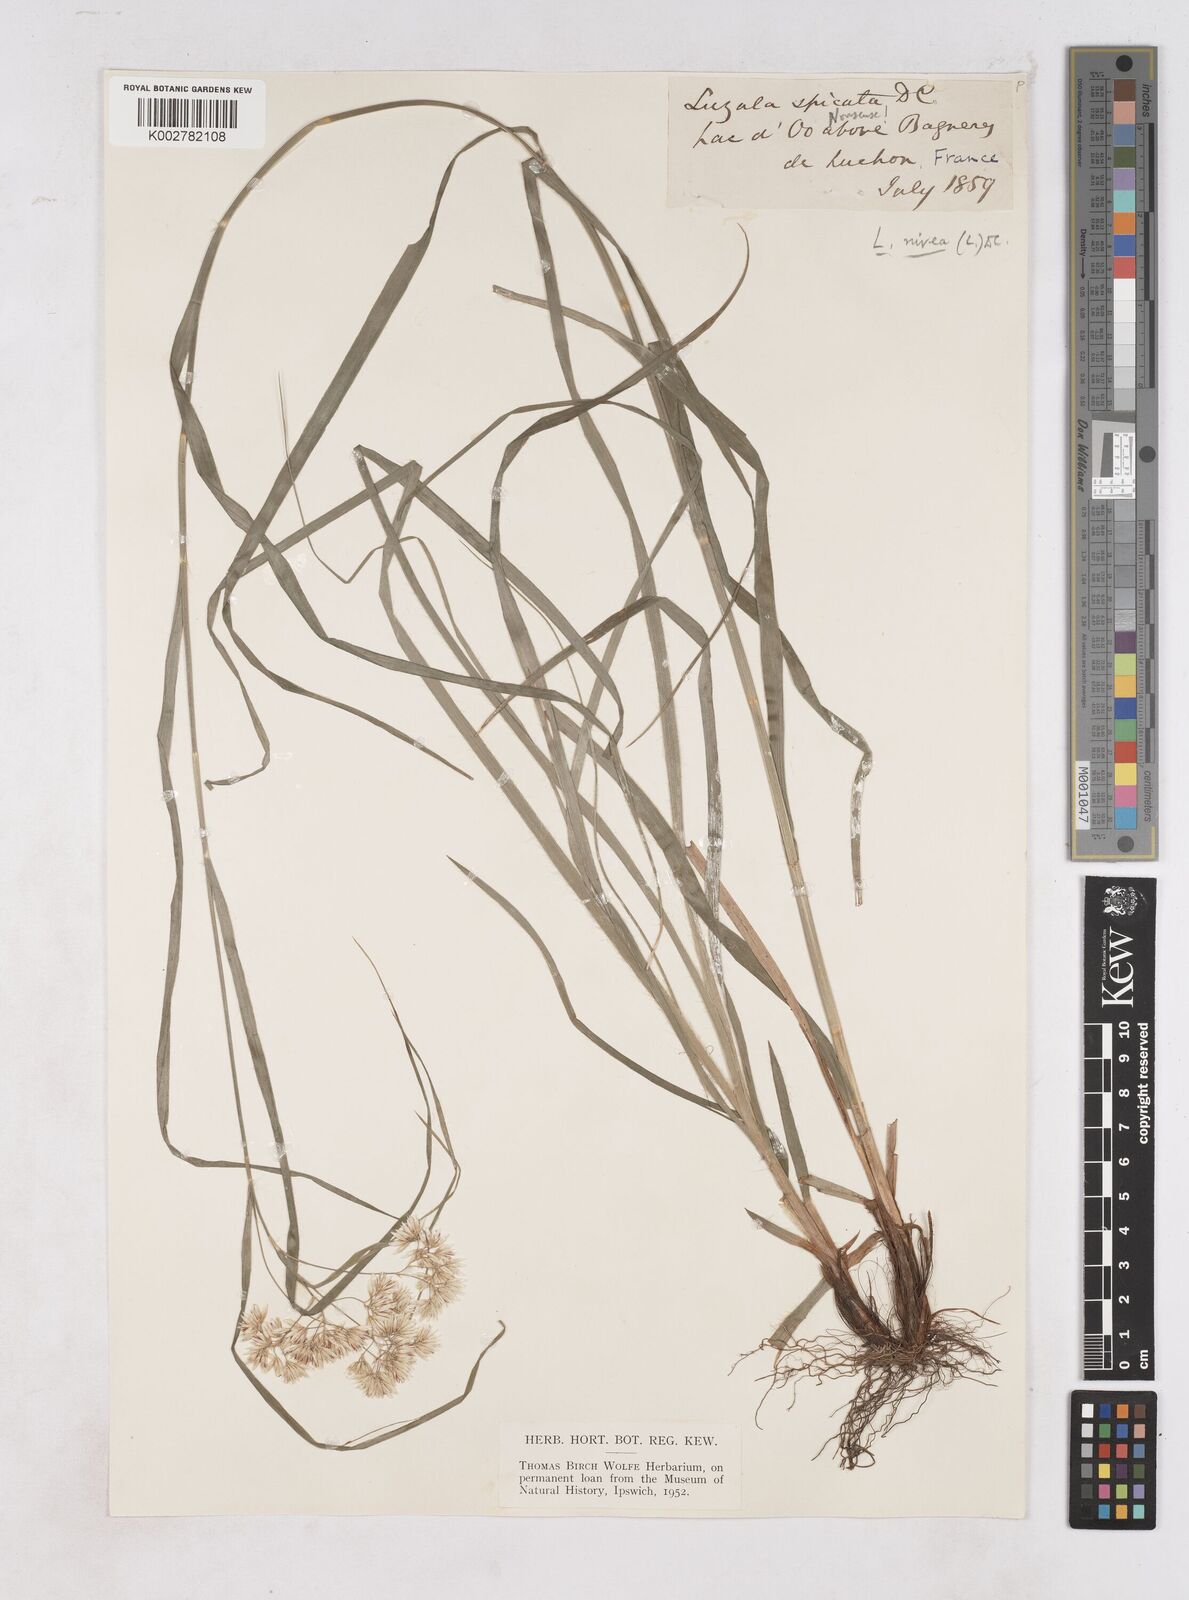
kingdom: Plantae
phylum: Tracheophyta
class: Liliopsida
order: Poales
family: Juncaceae
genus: Luzula
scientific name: Luzula nivea
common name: Snow-white wood-rush
